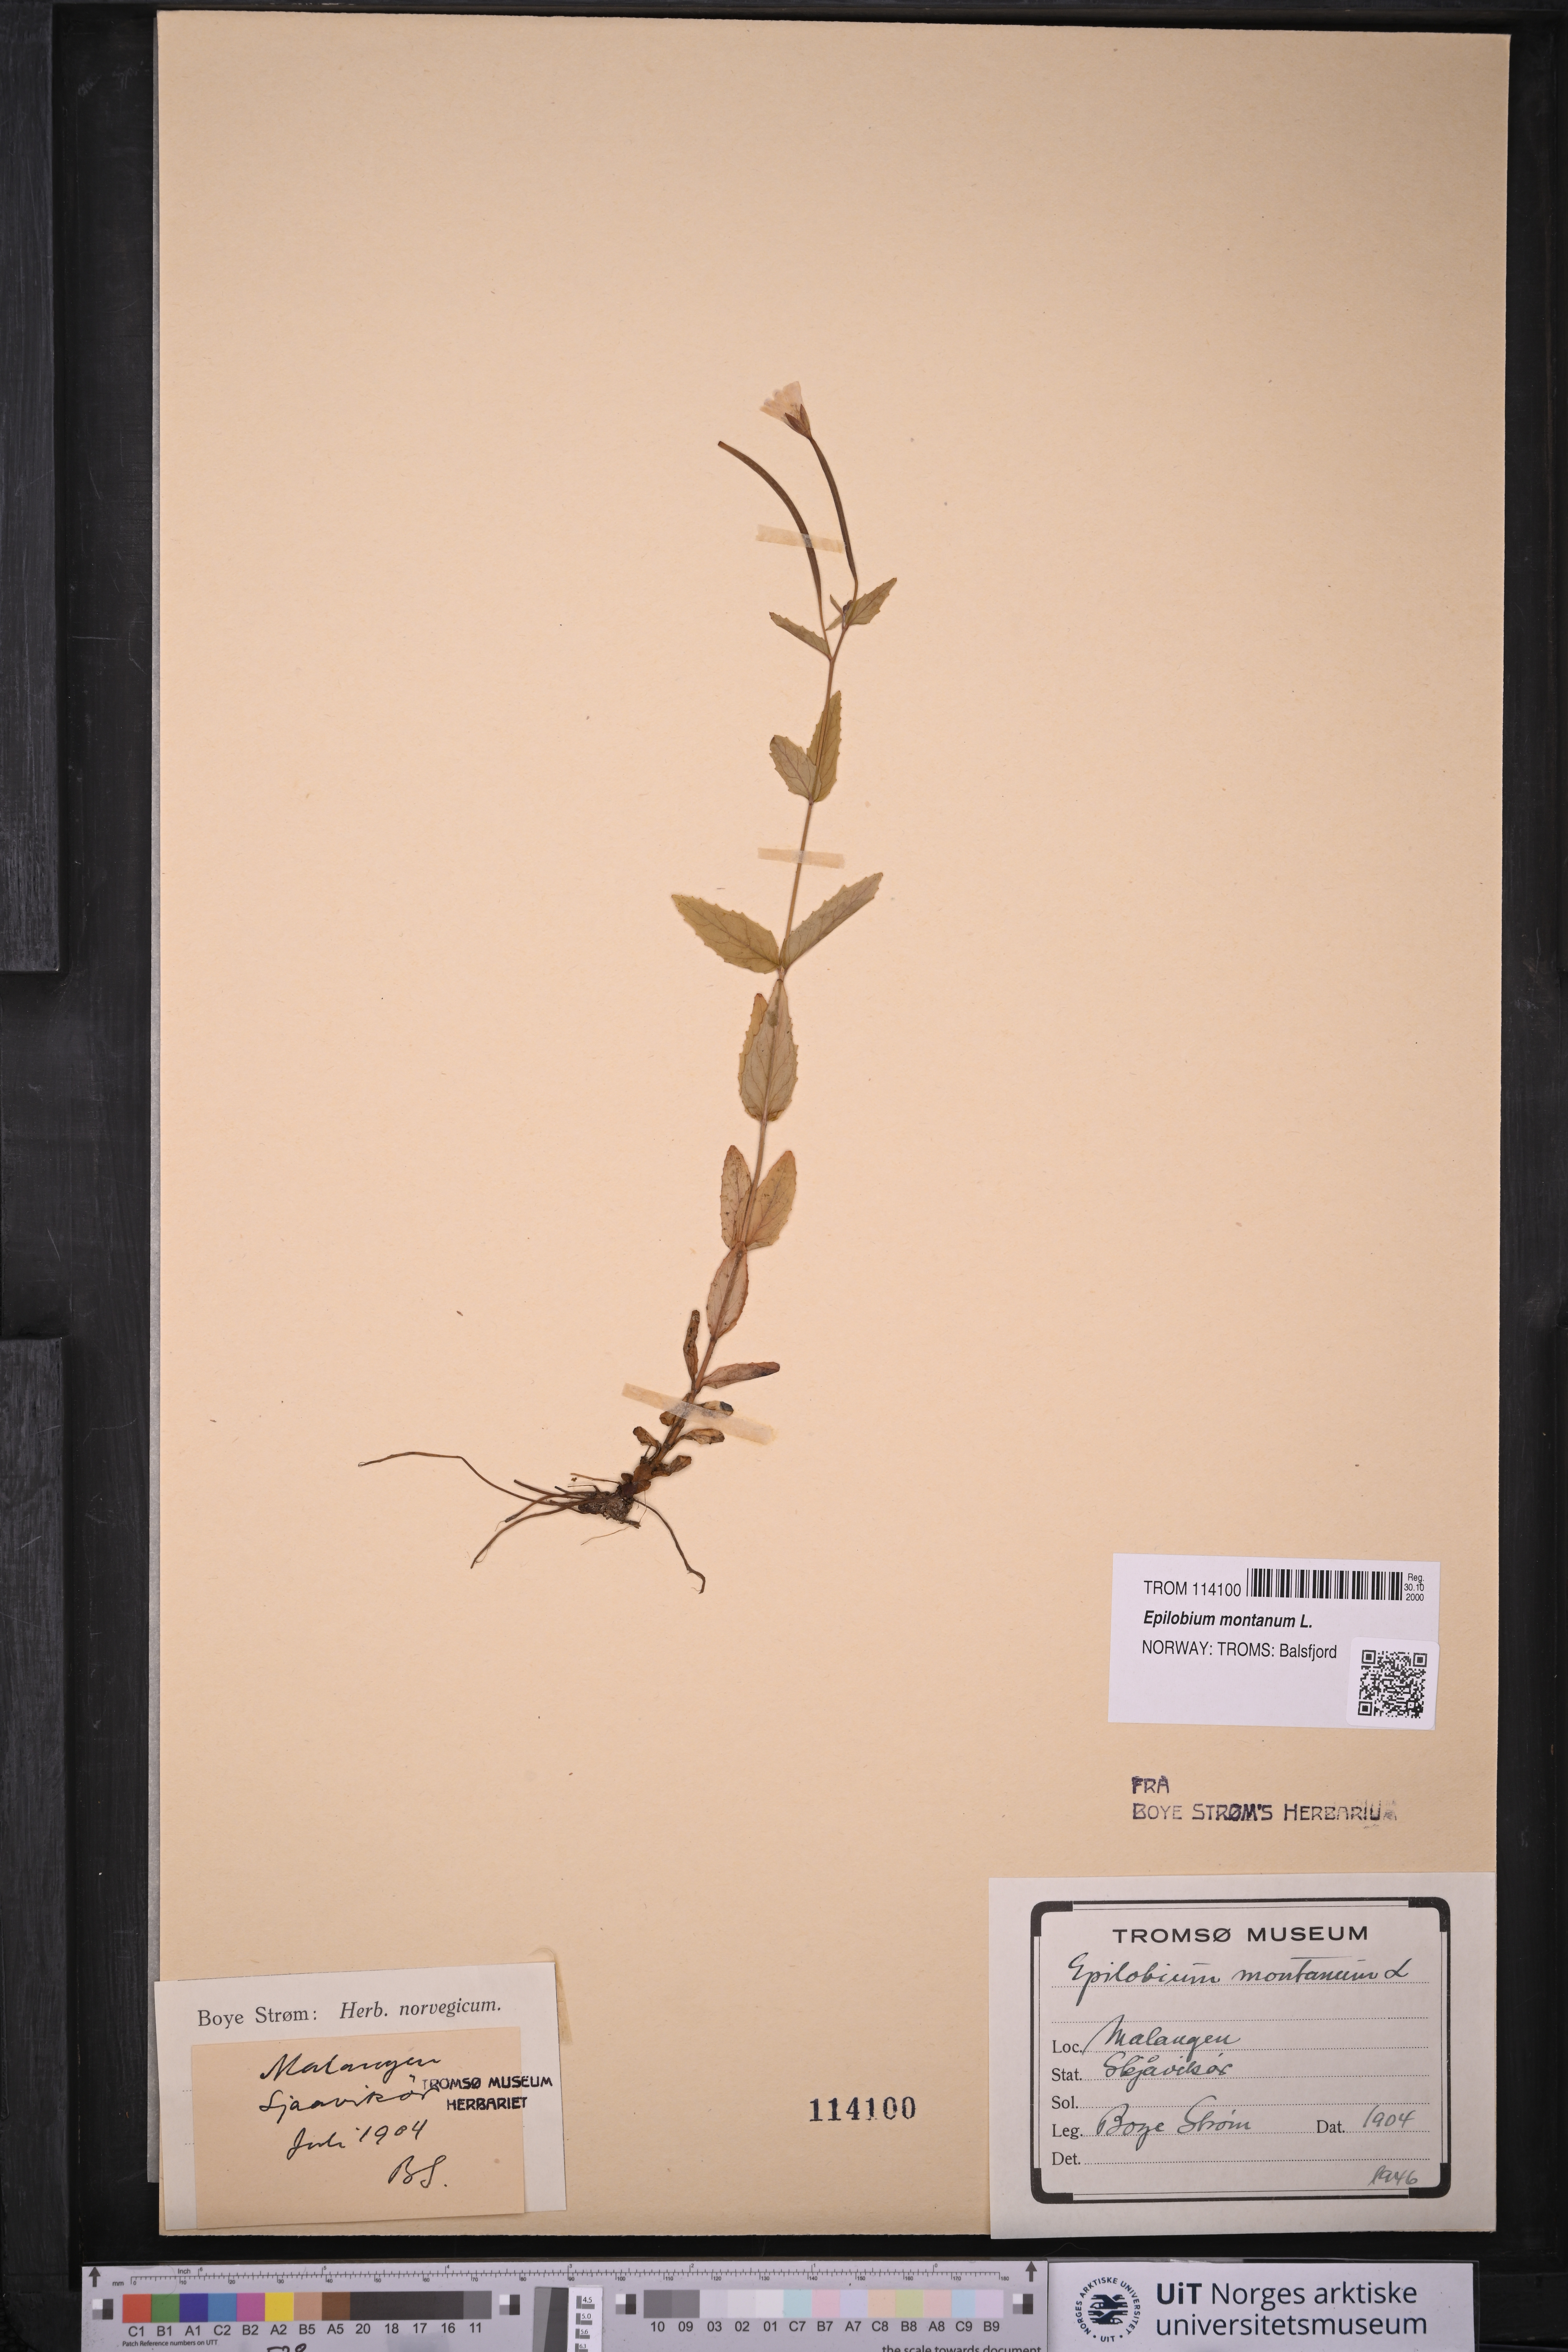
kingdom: Plantae
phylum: Tracheophyta
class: Magnoliopsida
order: Myrtales
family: Onagraceae
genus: Epilobium
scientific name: Epilobium montanum
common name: Broad-leaved willowherb
